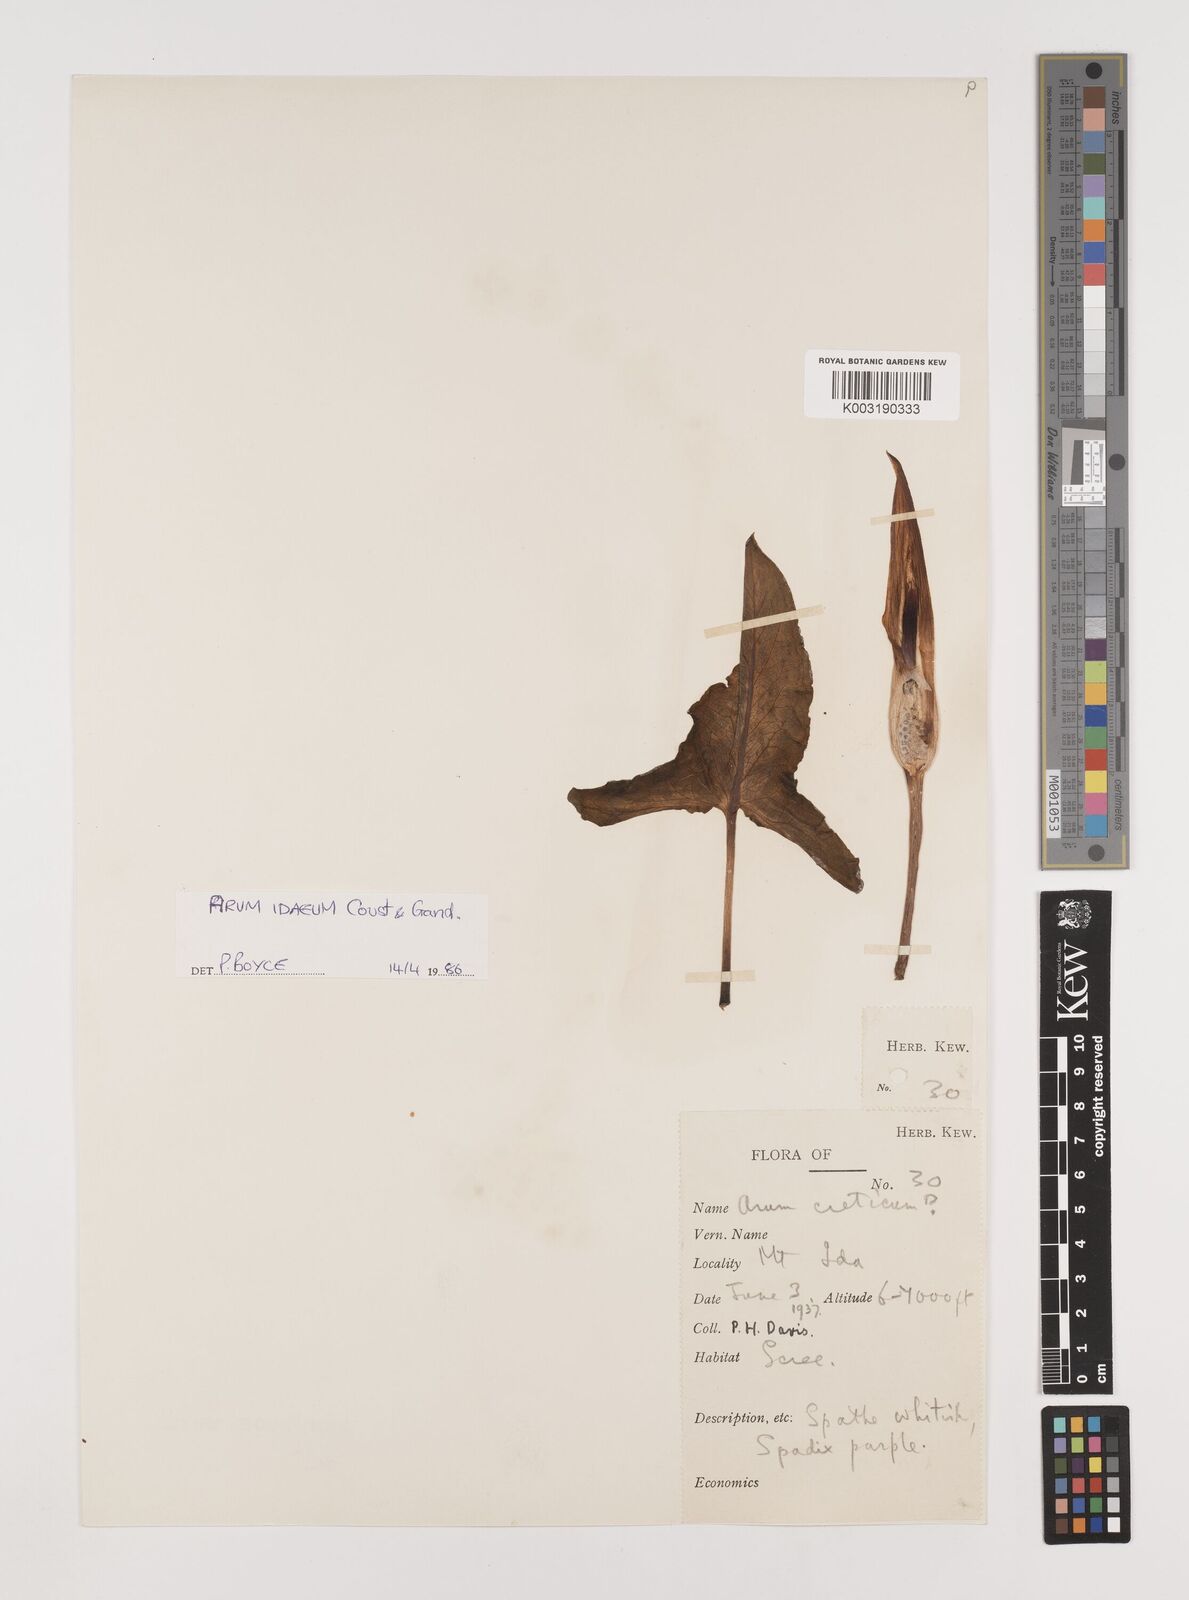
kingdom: Plantae
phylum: Tracheophyta
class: Liliopsida
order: Alismatales
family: Araceae
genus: Arum
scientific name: Arum idaeum
